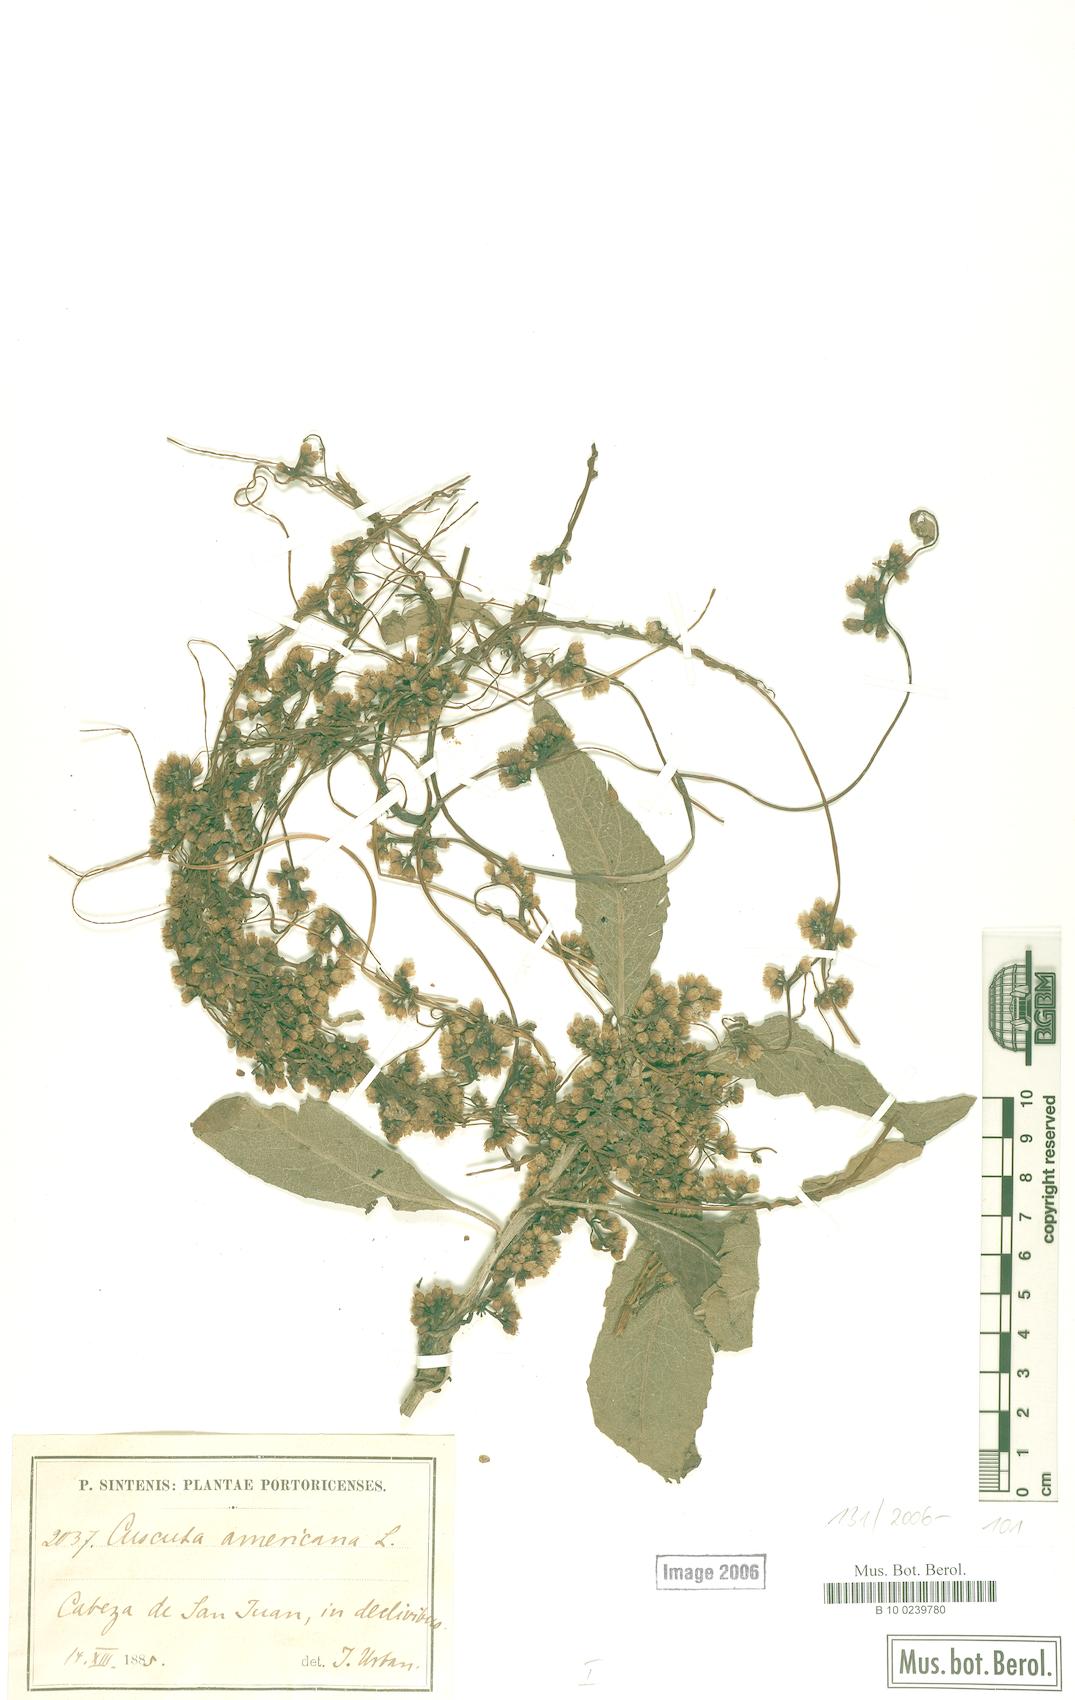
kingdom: Plantae
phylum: Tracheophyta
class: Magnoliopsida
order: Solanales
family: Convolvulaceae
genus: Cuscuta
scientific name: Cuscuta americana
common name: American dodder
